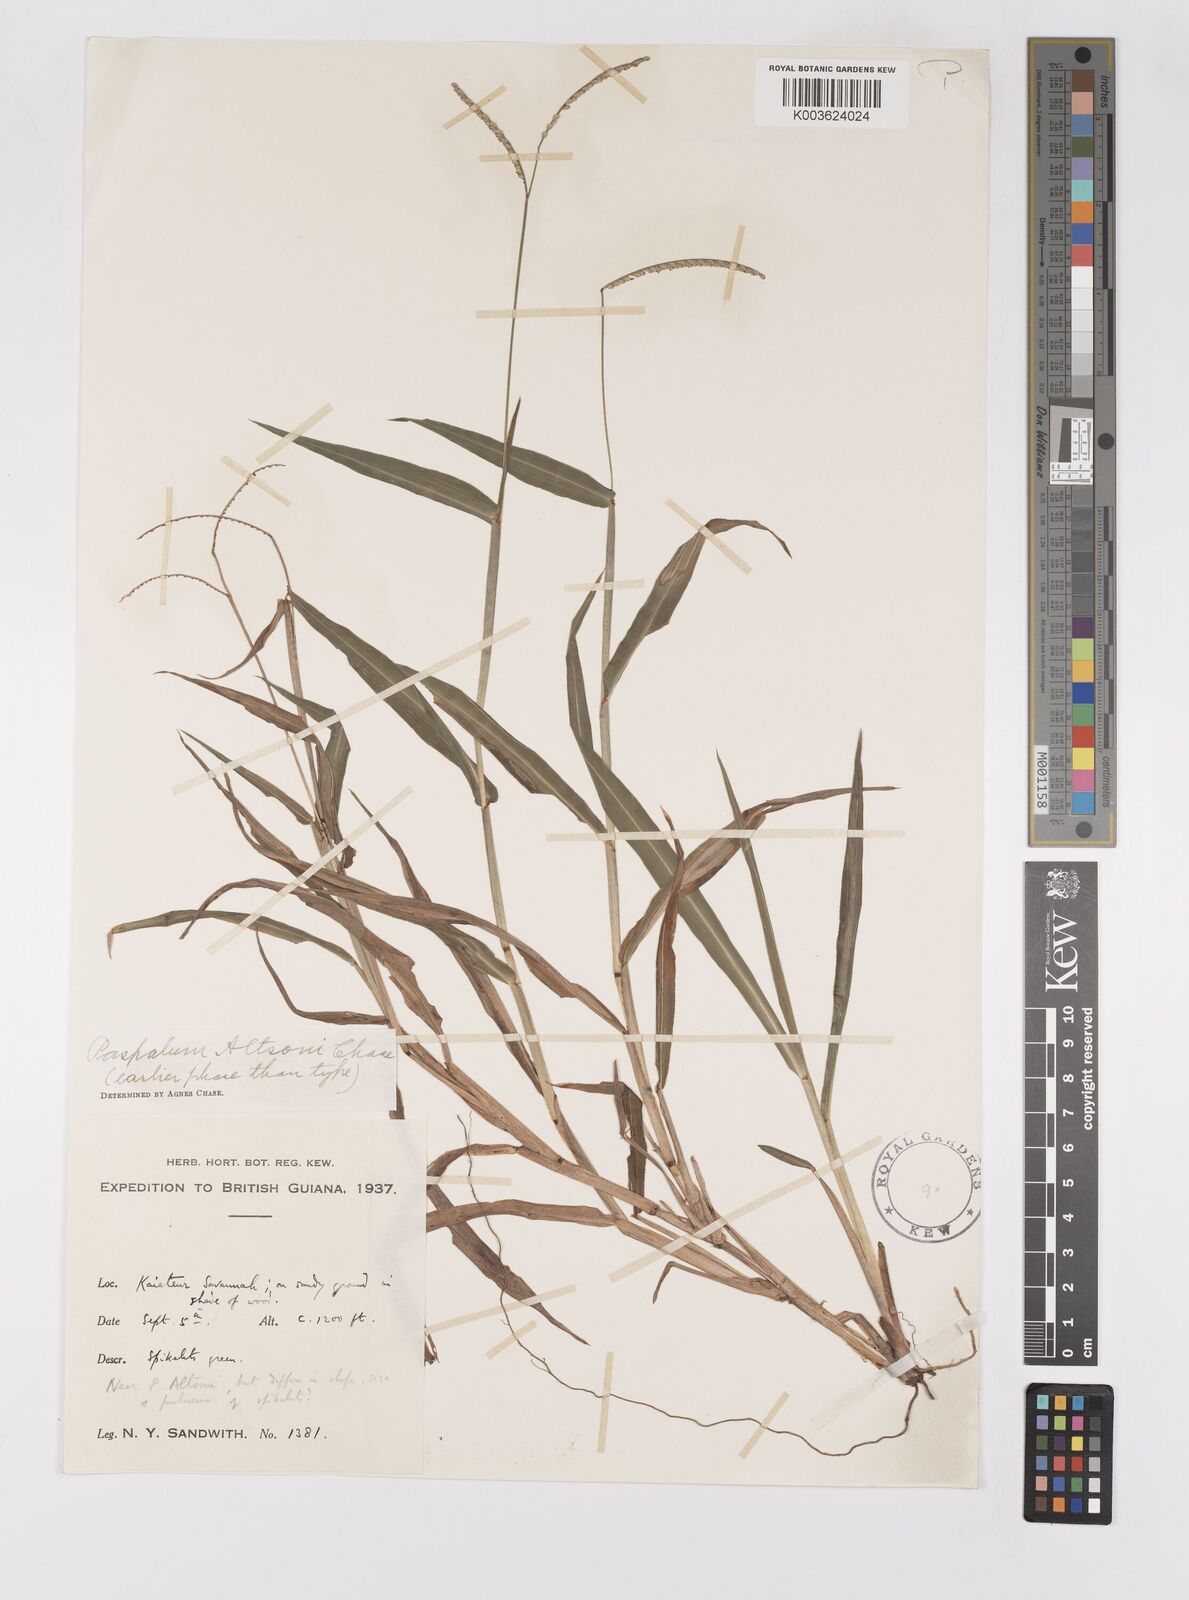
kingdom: Plantae
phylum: Tracheophyta
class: Liliopsida
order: Poales
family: Poaceae
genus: Paspalum
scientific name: Paspalum altsonii
